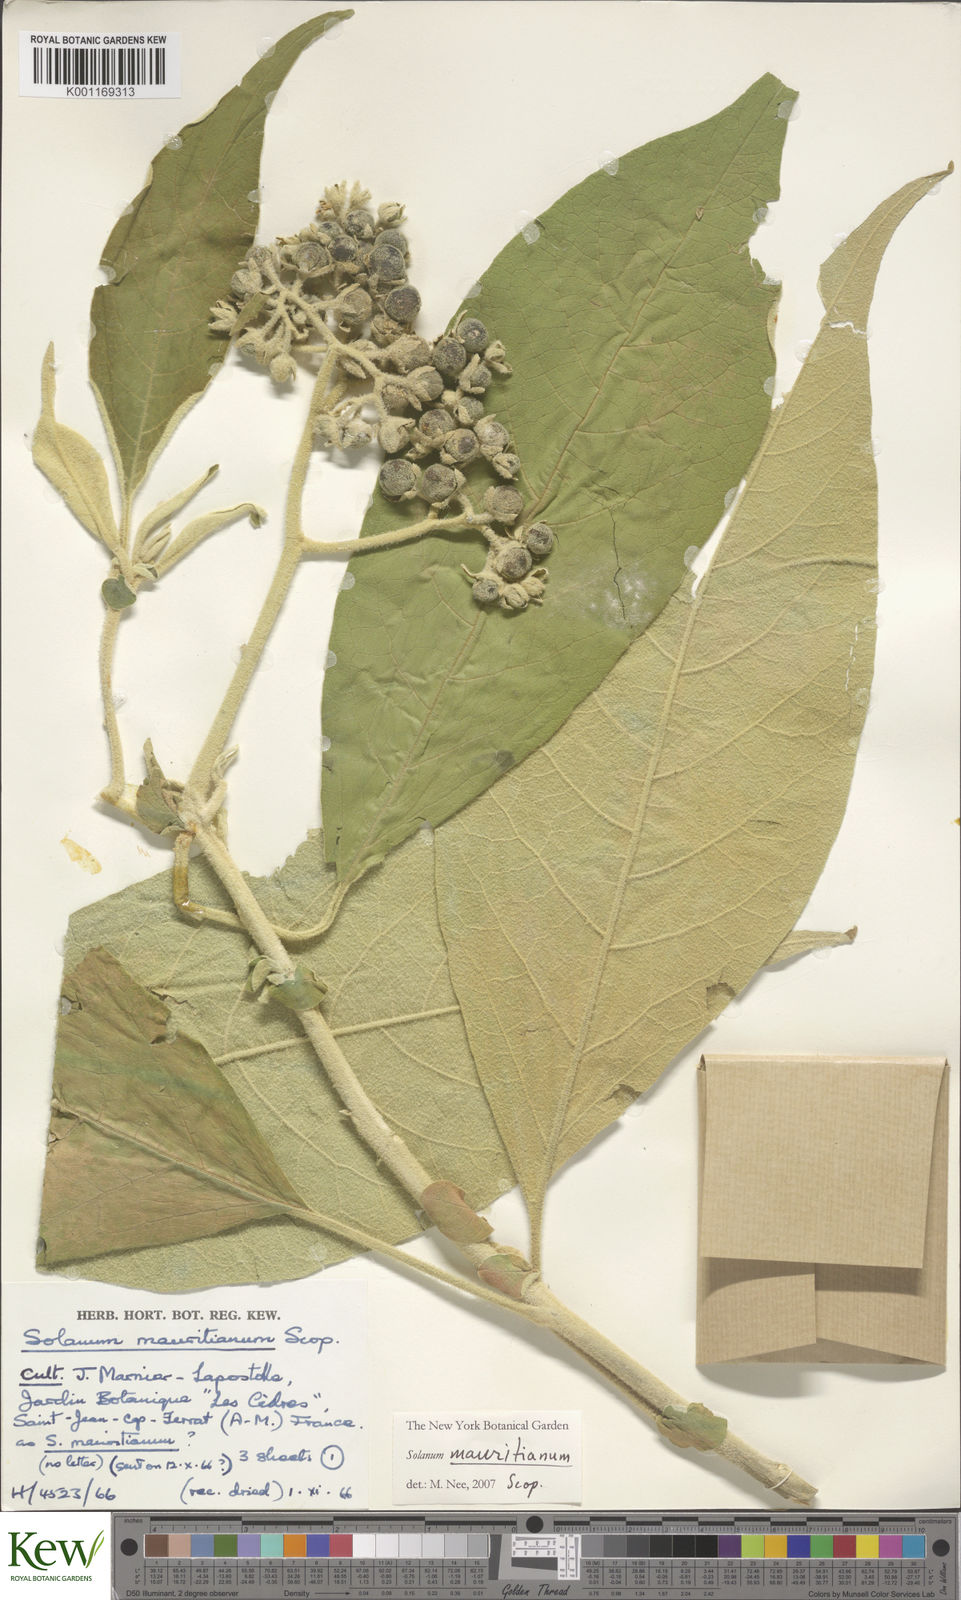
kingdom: Plantae
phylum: Tracheophyta
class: Magnoliopsida
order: Solanales
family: Solanaceae
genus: Solanum
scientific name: Solanum mauritianum
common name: Earleaf nightshade
